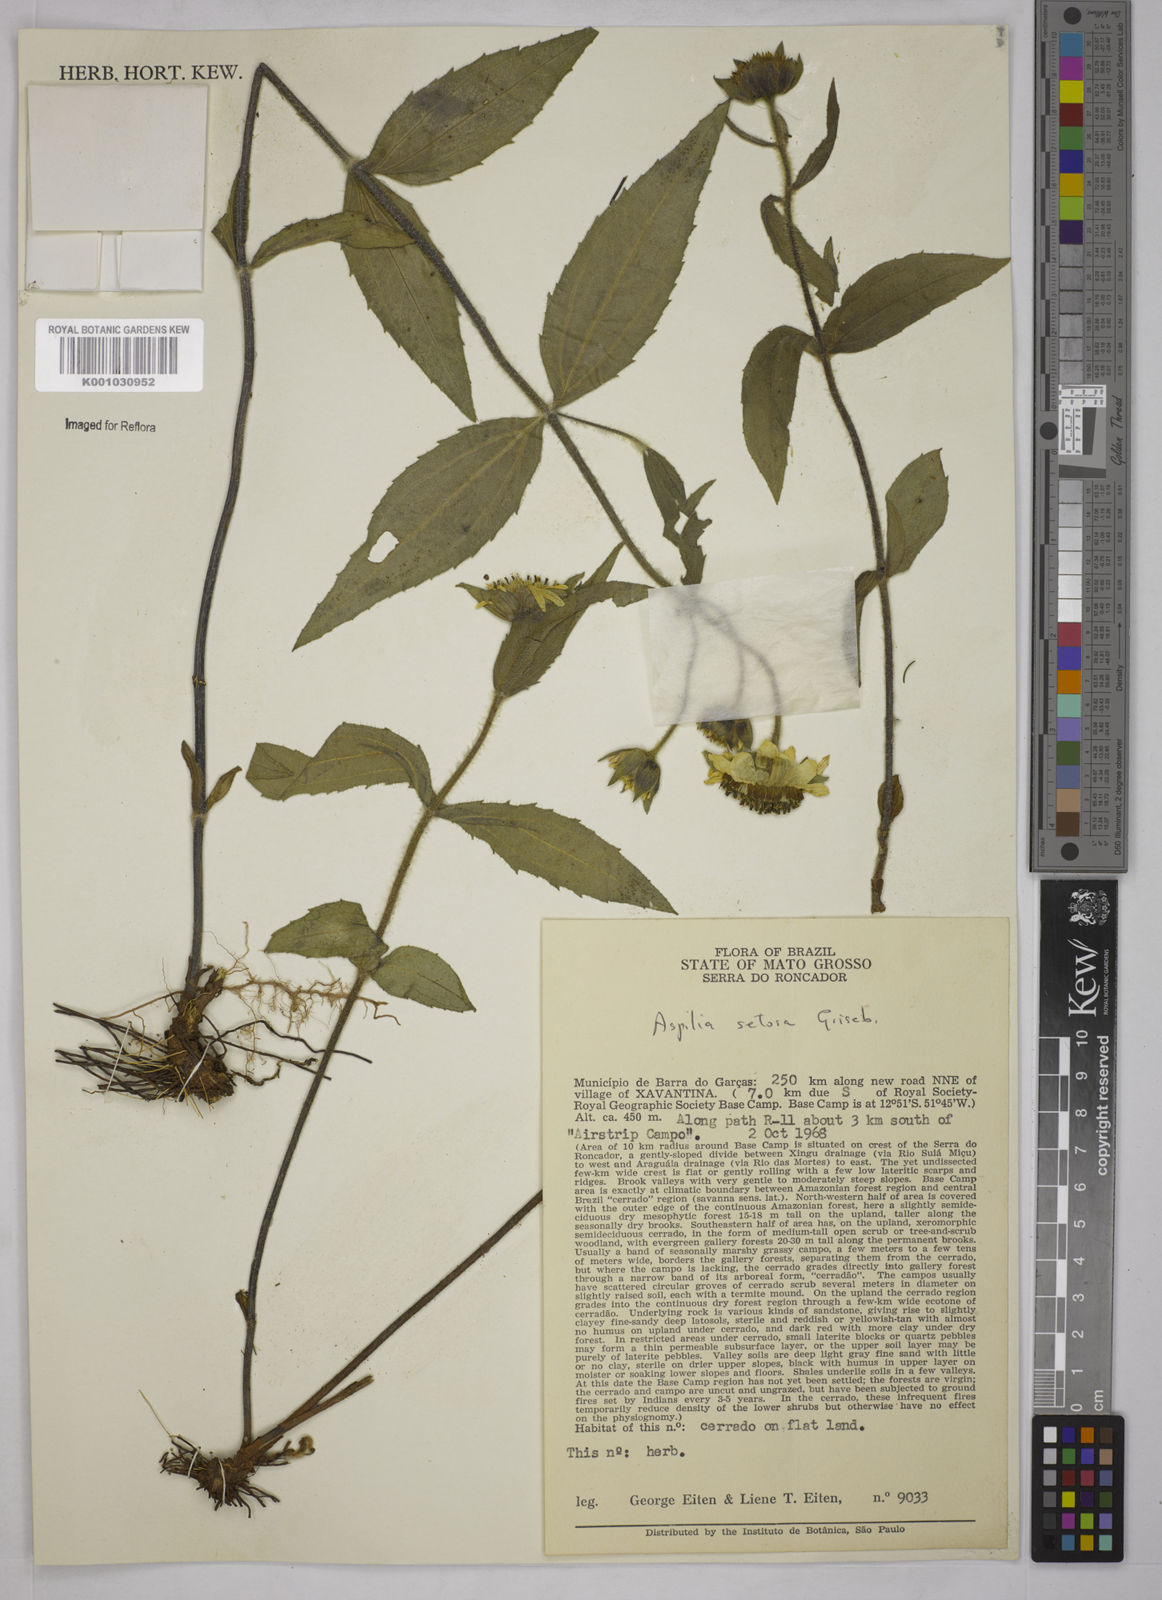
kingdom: Plantae
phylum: Tracheophyta
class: Magnoliopsida
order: Asterales
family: Asteraceae
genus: Aspilia
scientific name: Aspilia
